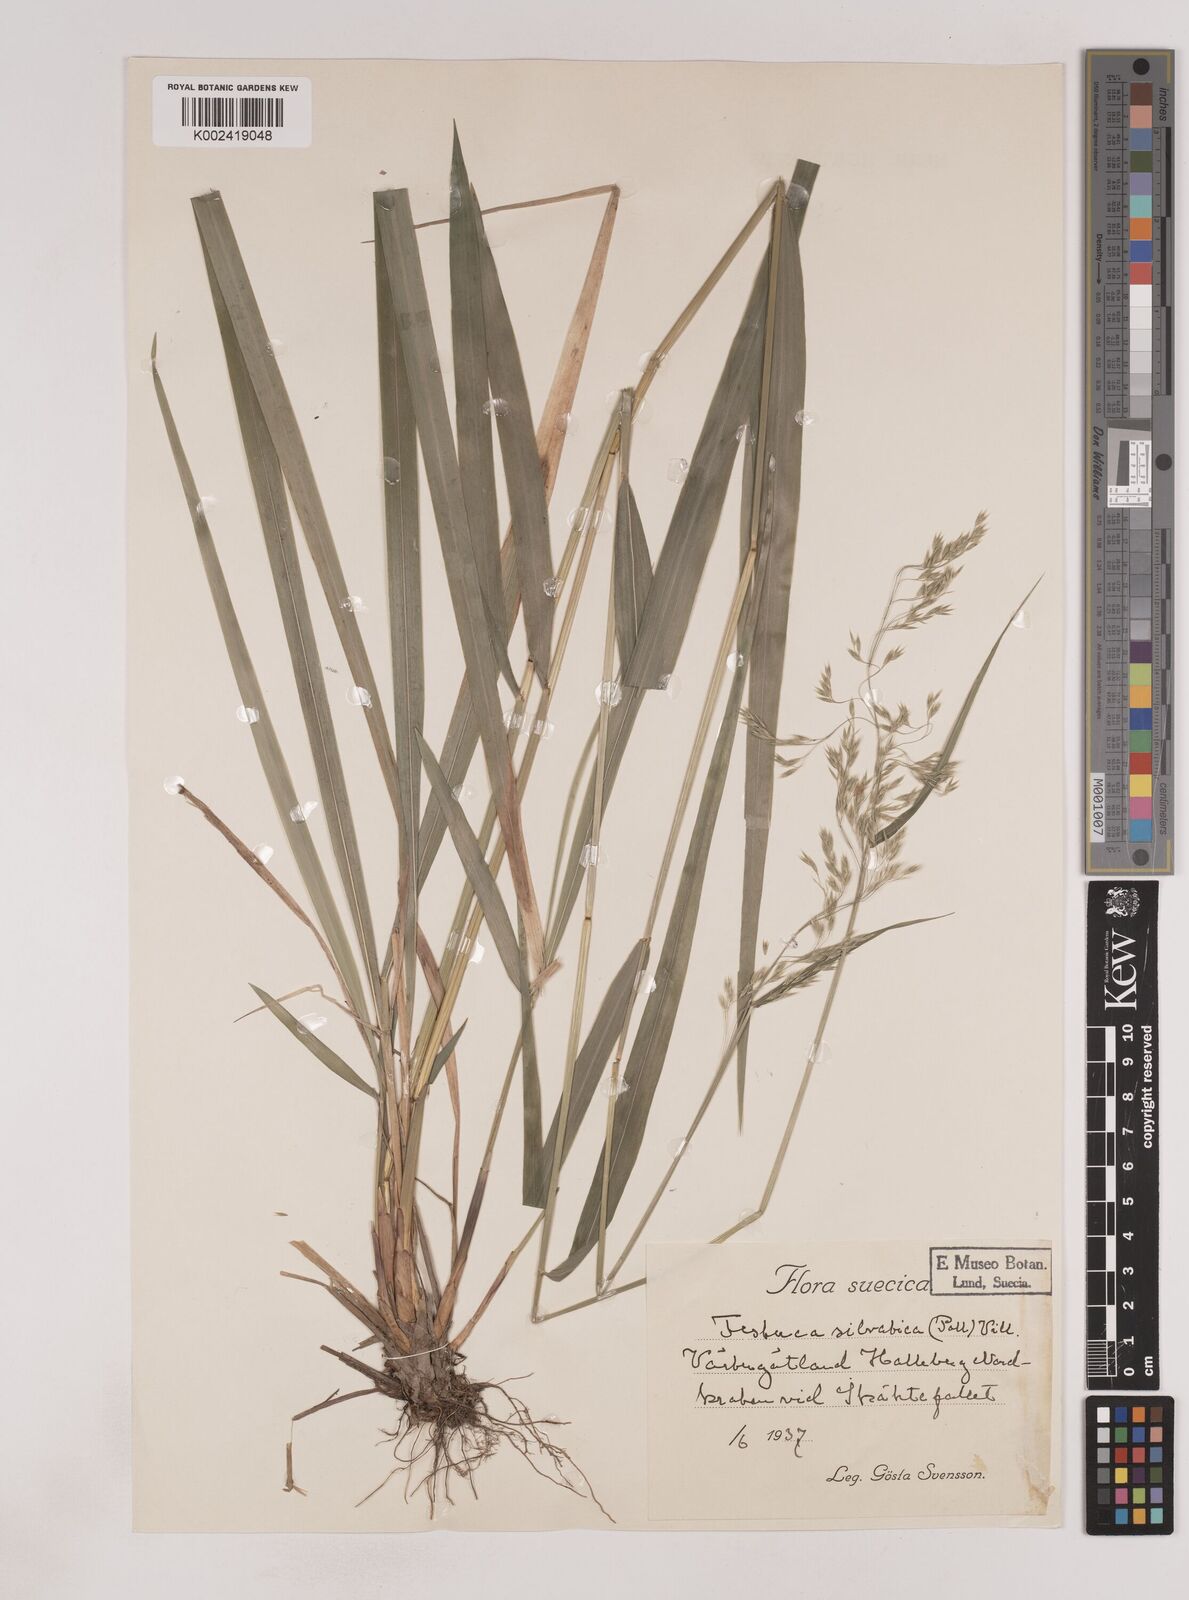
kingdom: Plantae
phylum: Tracheophyta
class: Liliopsida
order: Poales
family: Poaceae
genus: Festuca
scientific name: Festuca drymeja
